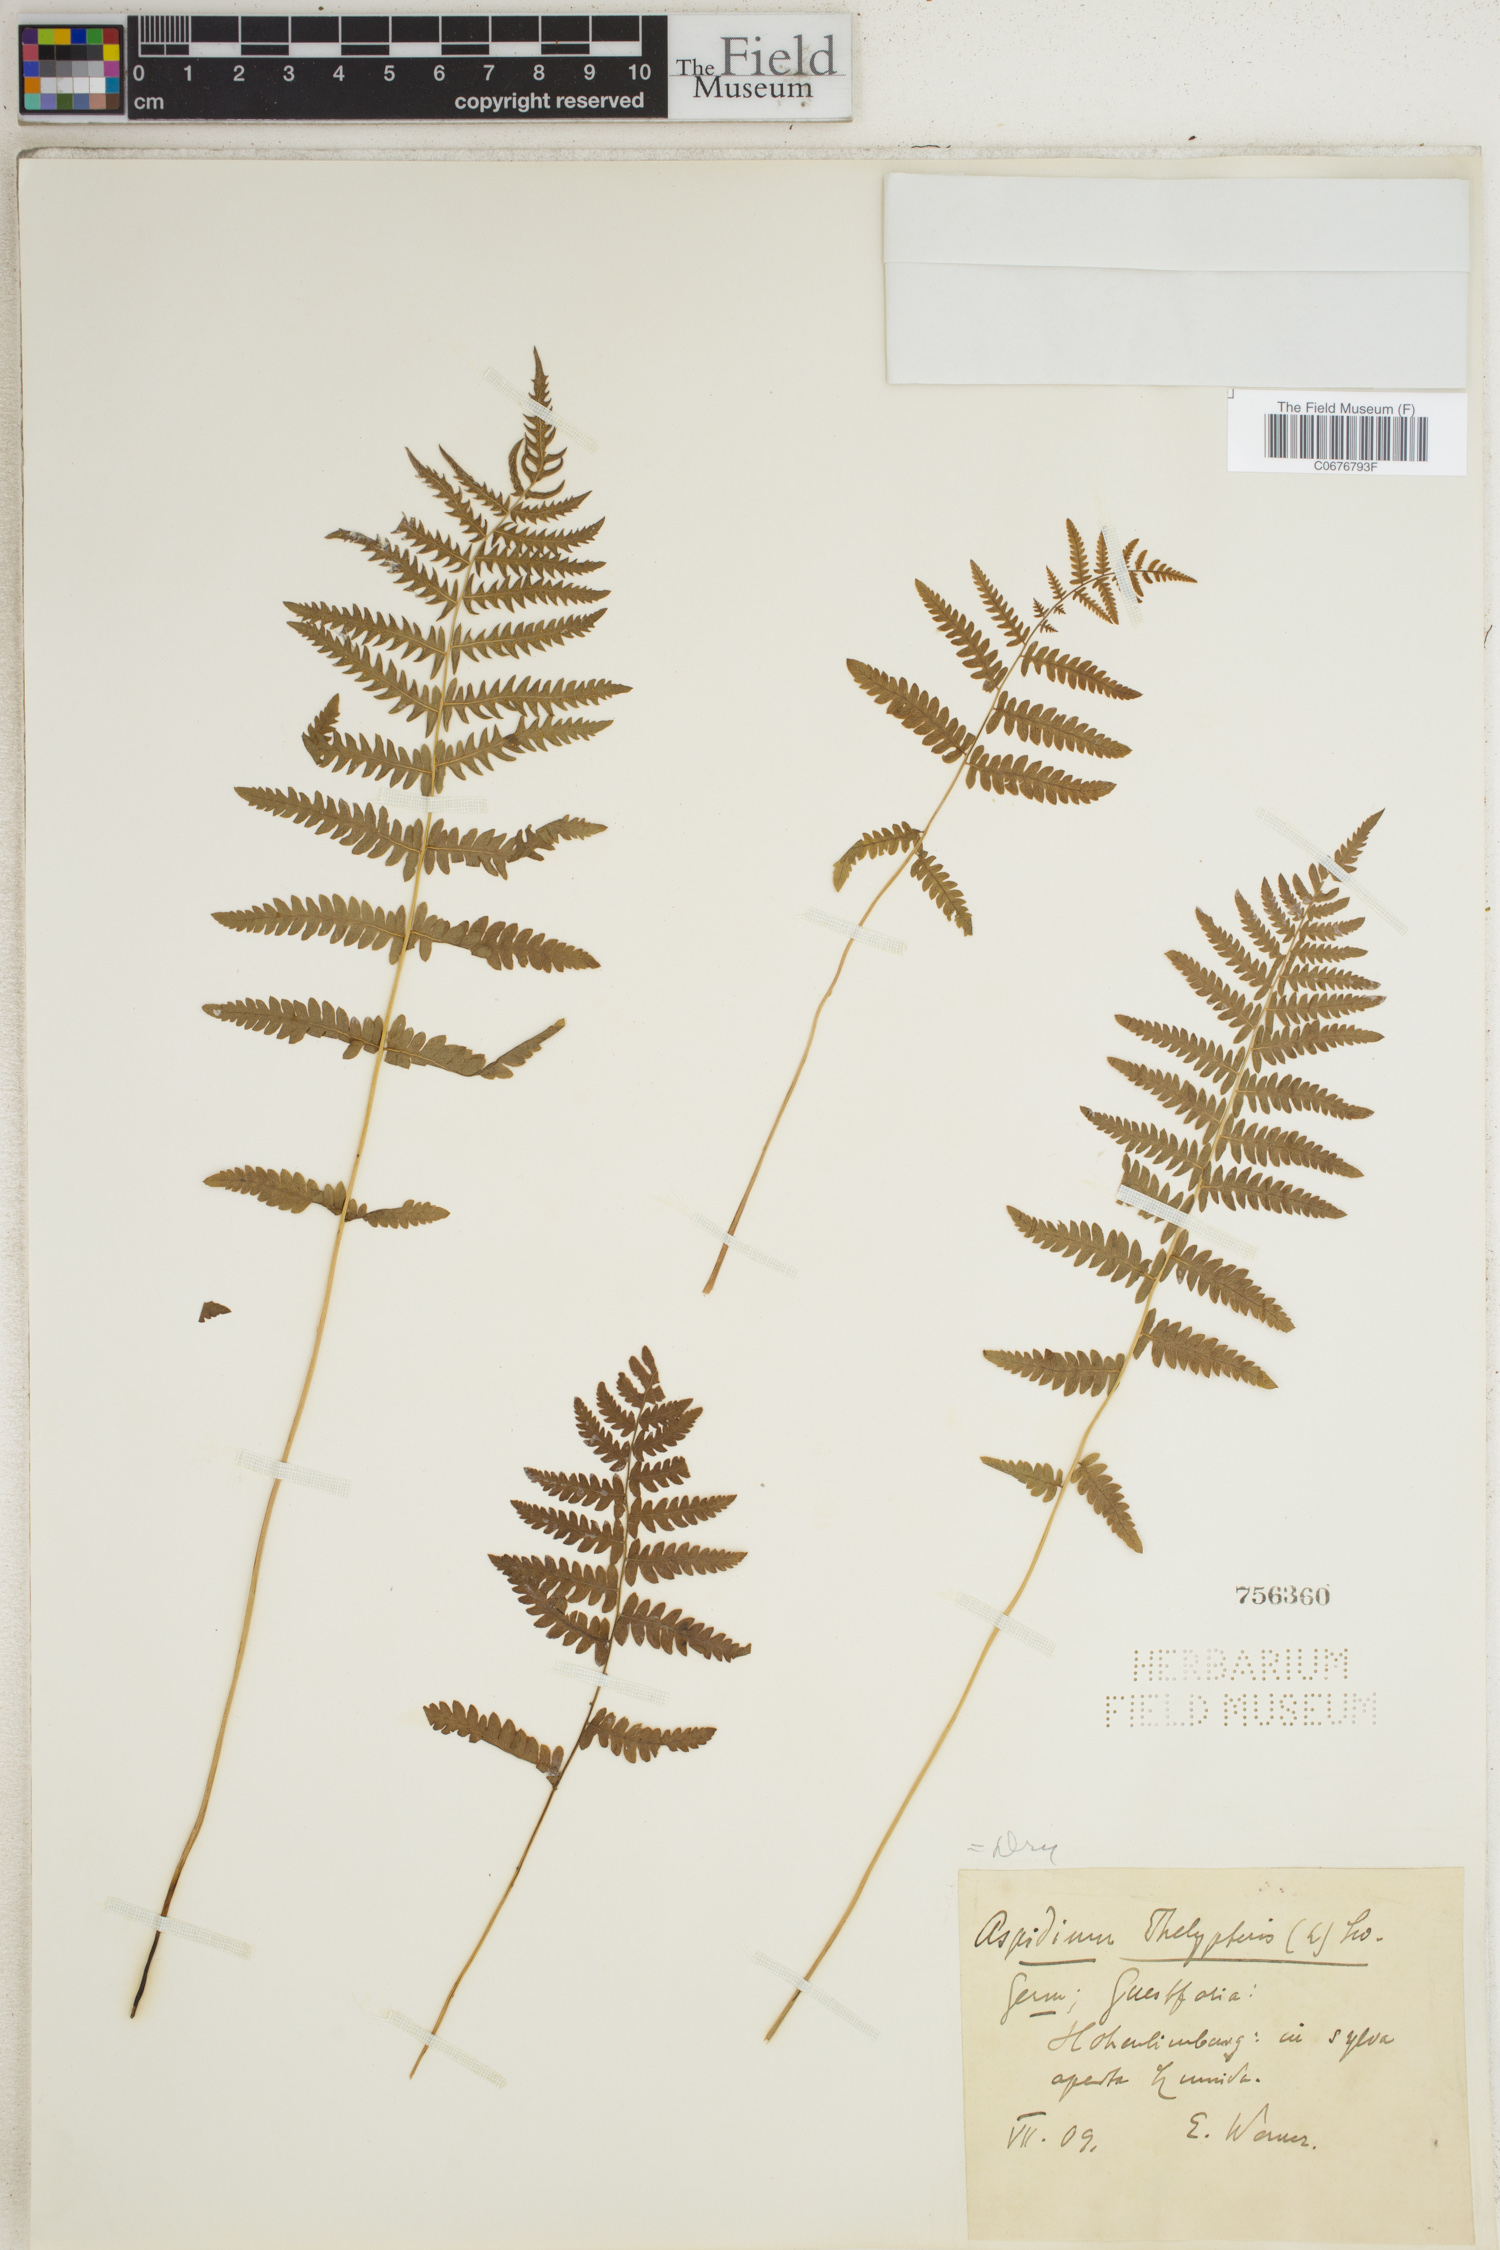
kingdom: Plantae
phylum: Tracheophyta
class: Polypodiopsida
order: Polypodiales
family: Thelypteridaceae
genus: Thelypteris
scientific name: Thelypteris palustris
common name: Marsh fern
